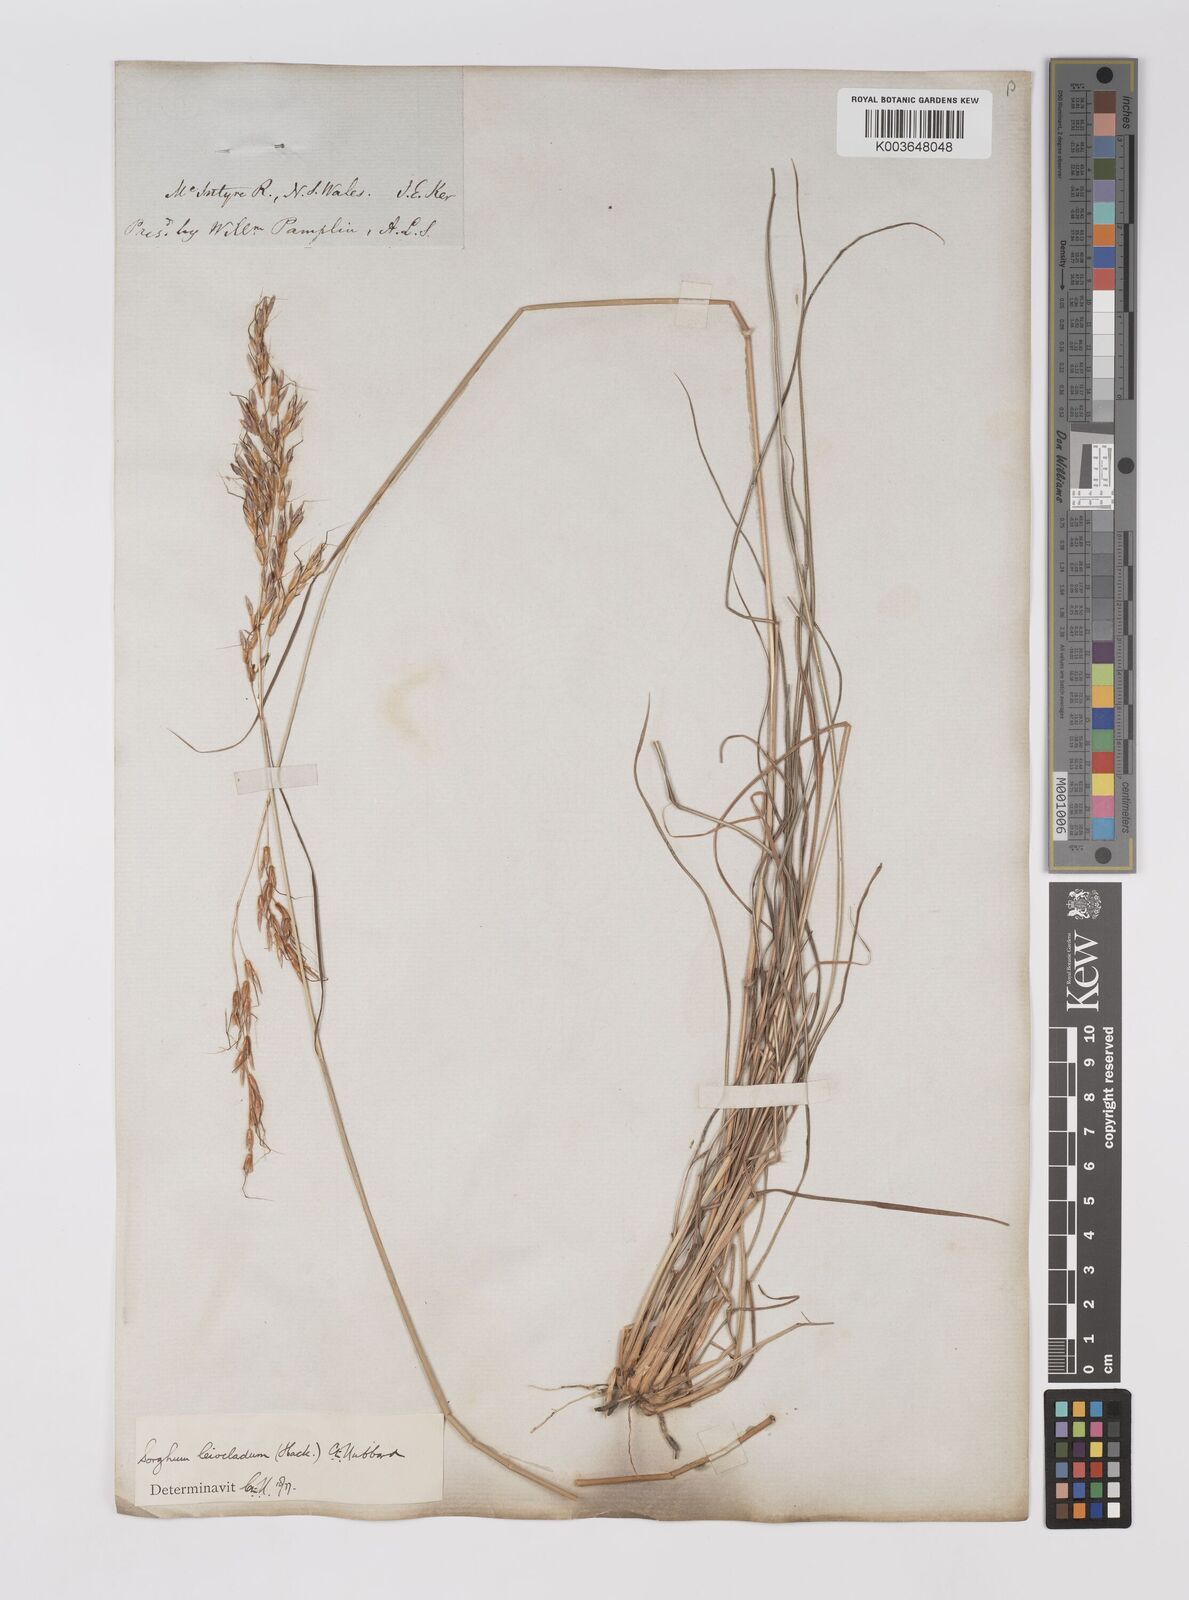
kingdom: Plantae
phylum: Tracheophyta
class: Liliopsida
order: Poales
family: Poaceae
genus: Sarga
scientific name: Sarga leioclada
